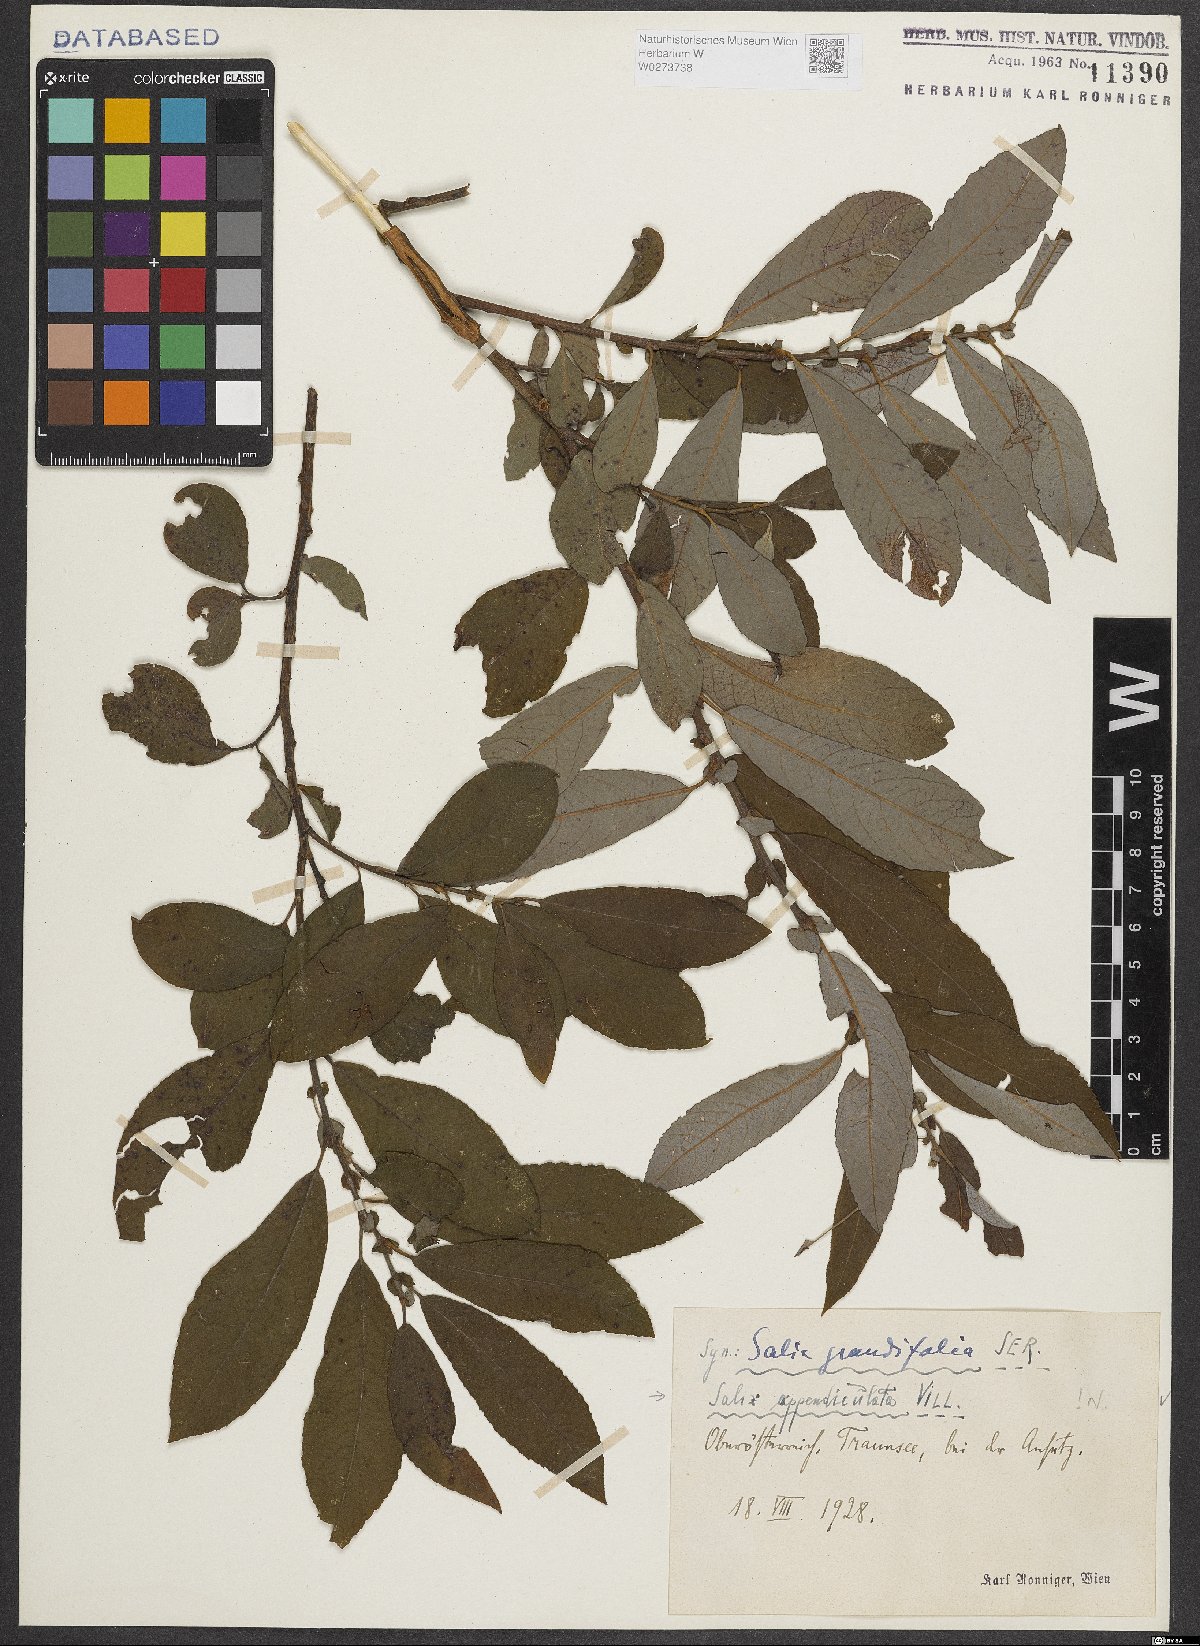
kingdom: Plantae
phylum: Tracheophyta
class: Magnoliopsida
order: Malpighiales
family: Salicaceae
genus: Salix
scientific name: Salix appendiculata
